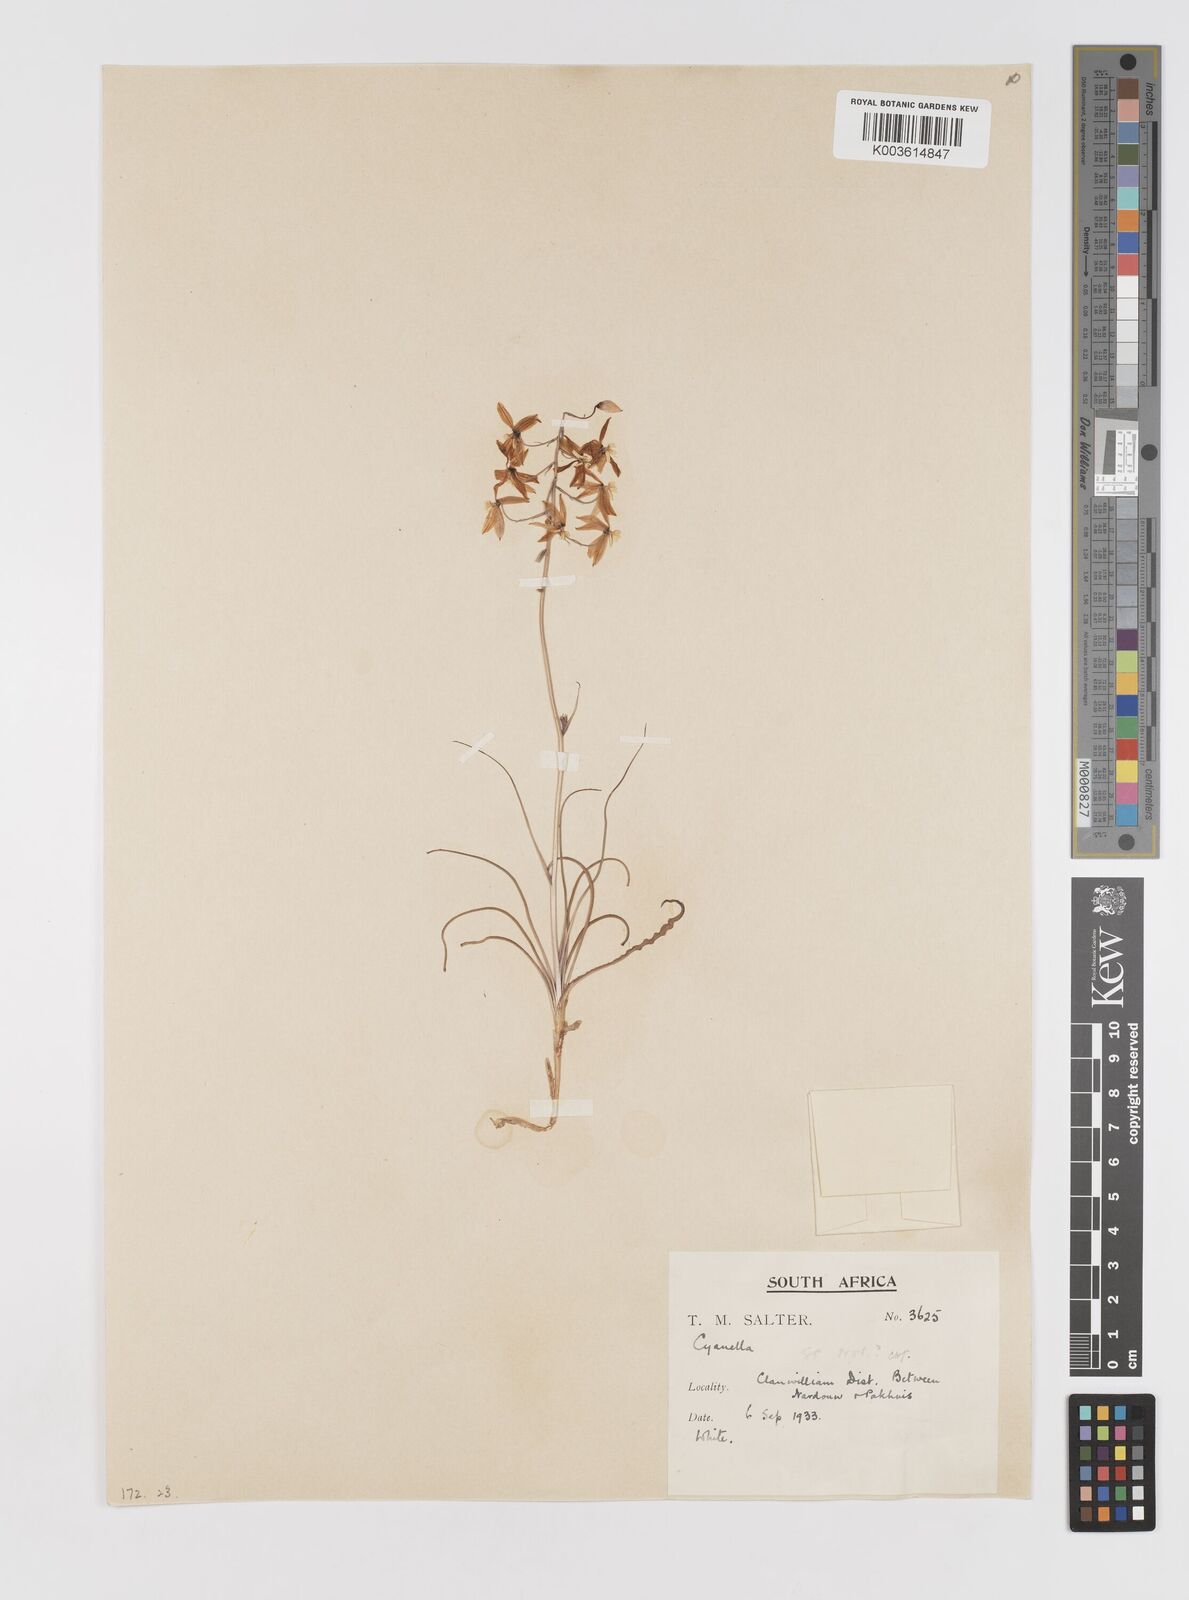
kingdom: Plantae
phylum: Tracheophyta
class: Liliopsida
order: Asparagales
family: Tecophilaeaceae
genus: Cyanella
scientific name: Cyanella
